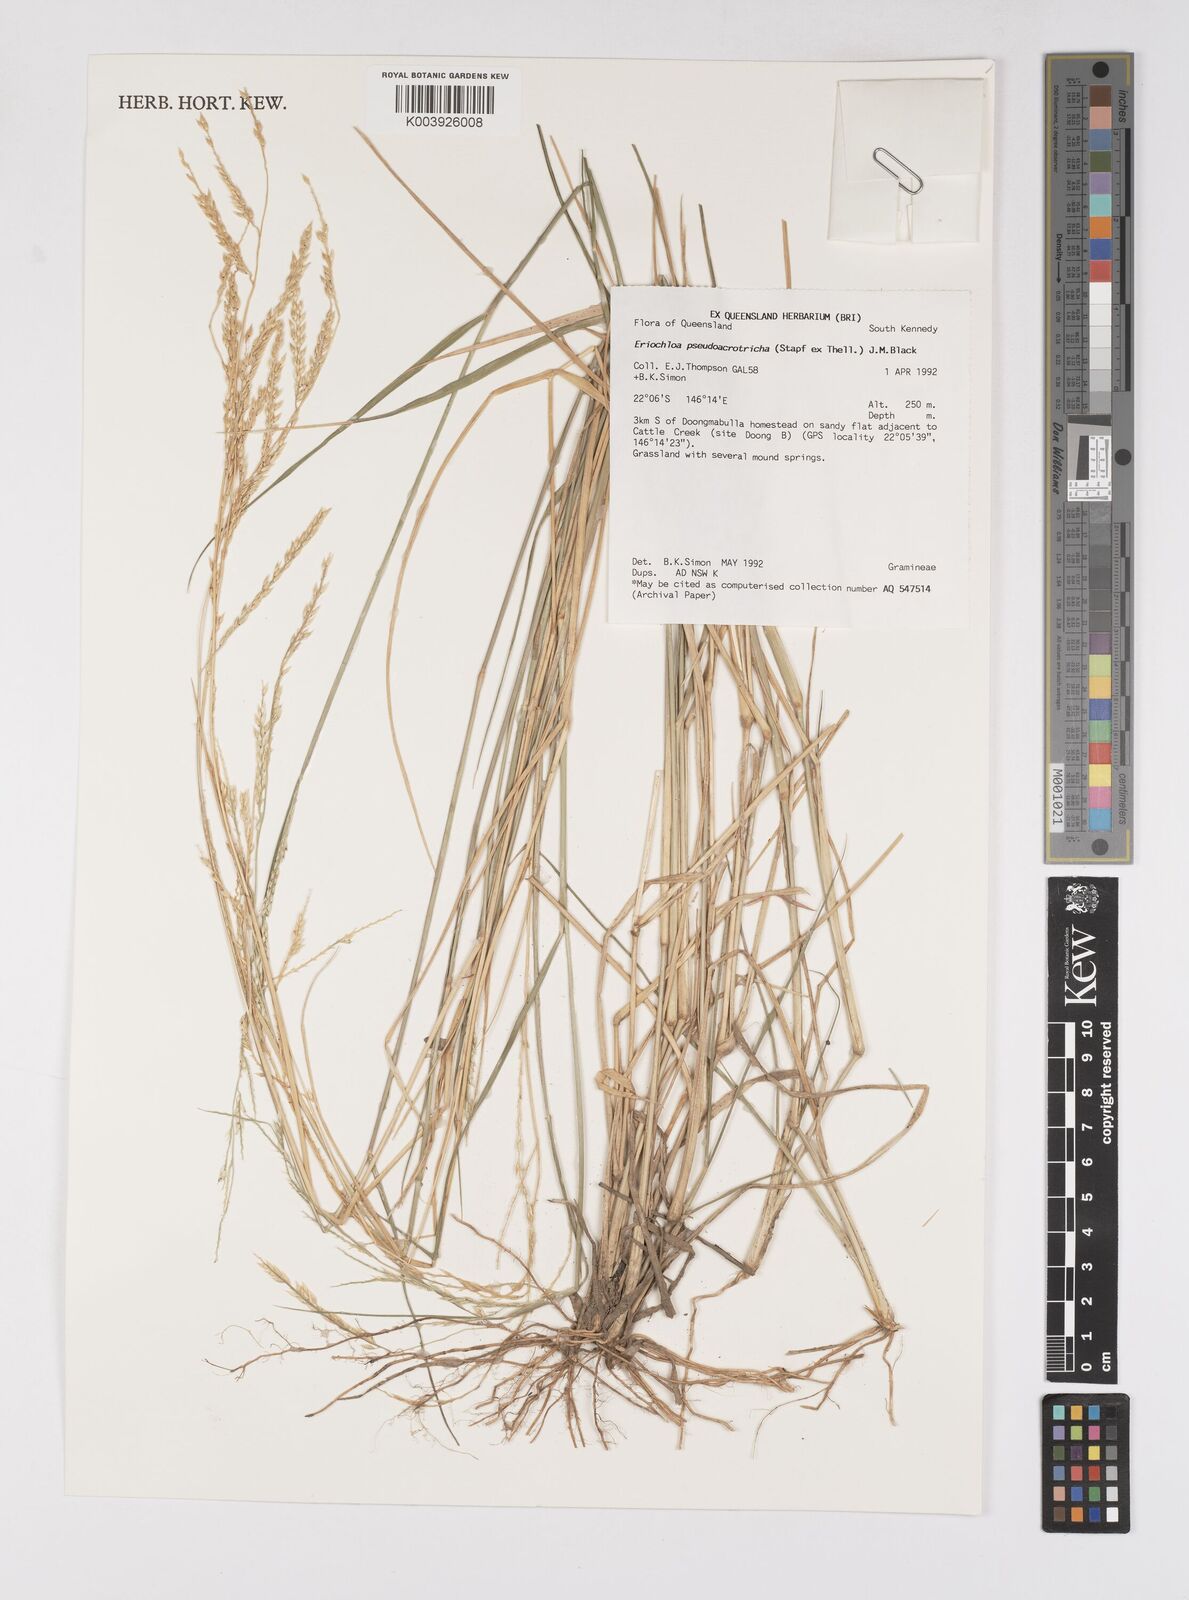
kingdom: Plantae
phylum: Tracheophyta
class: Liliopsida
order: Poales
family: Poaceae
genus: Eriochloa
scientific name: Eriochloa pseudoacrotricha
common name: Perennial cup-grass
